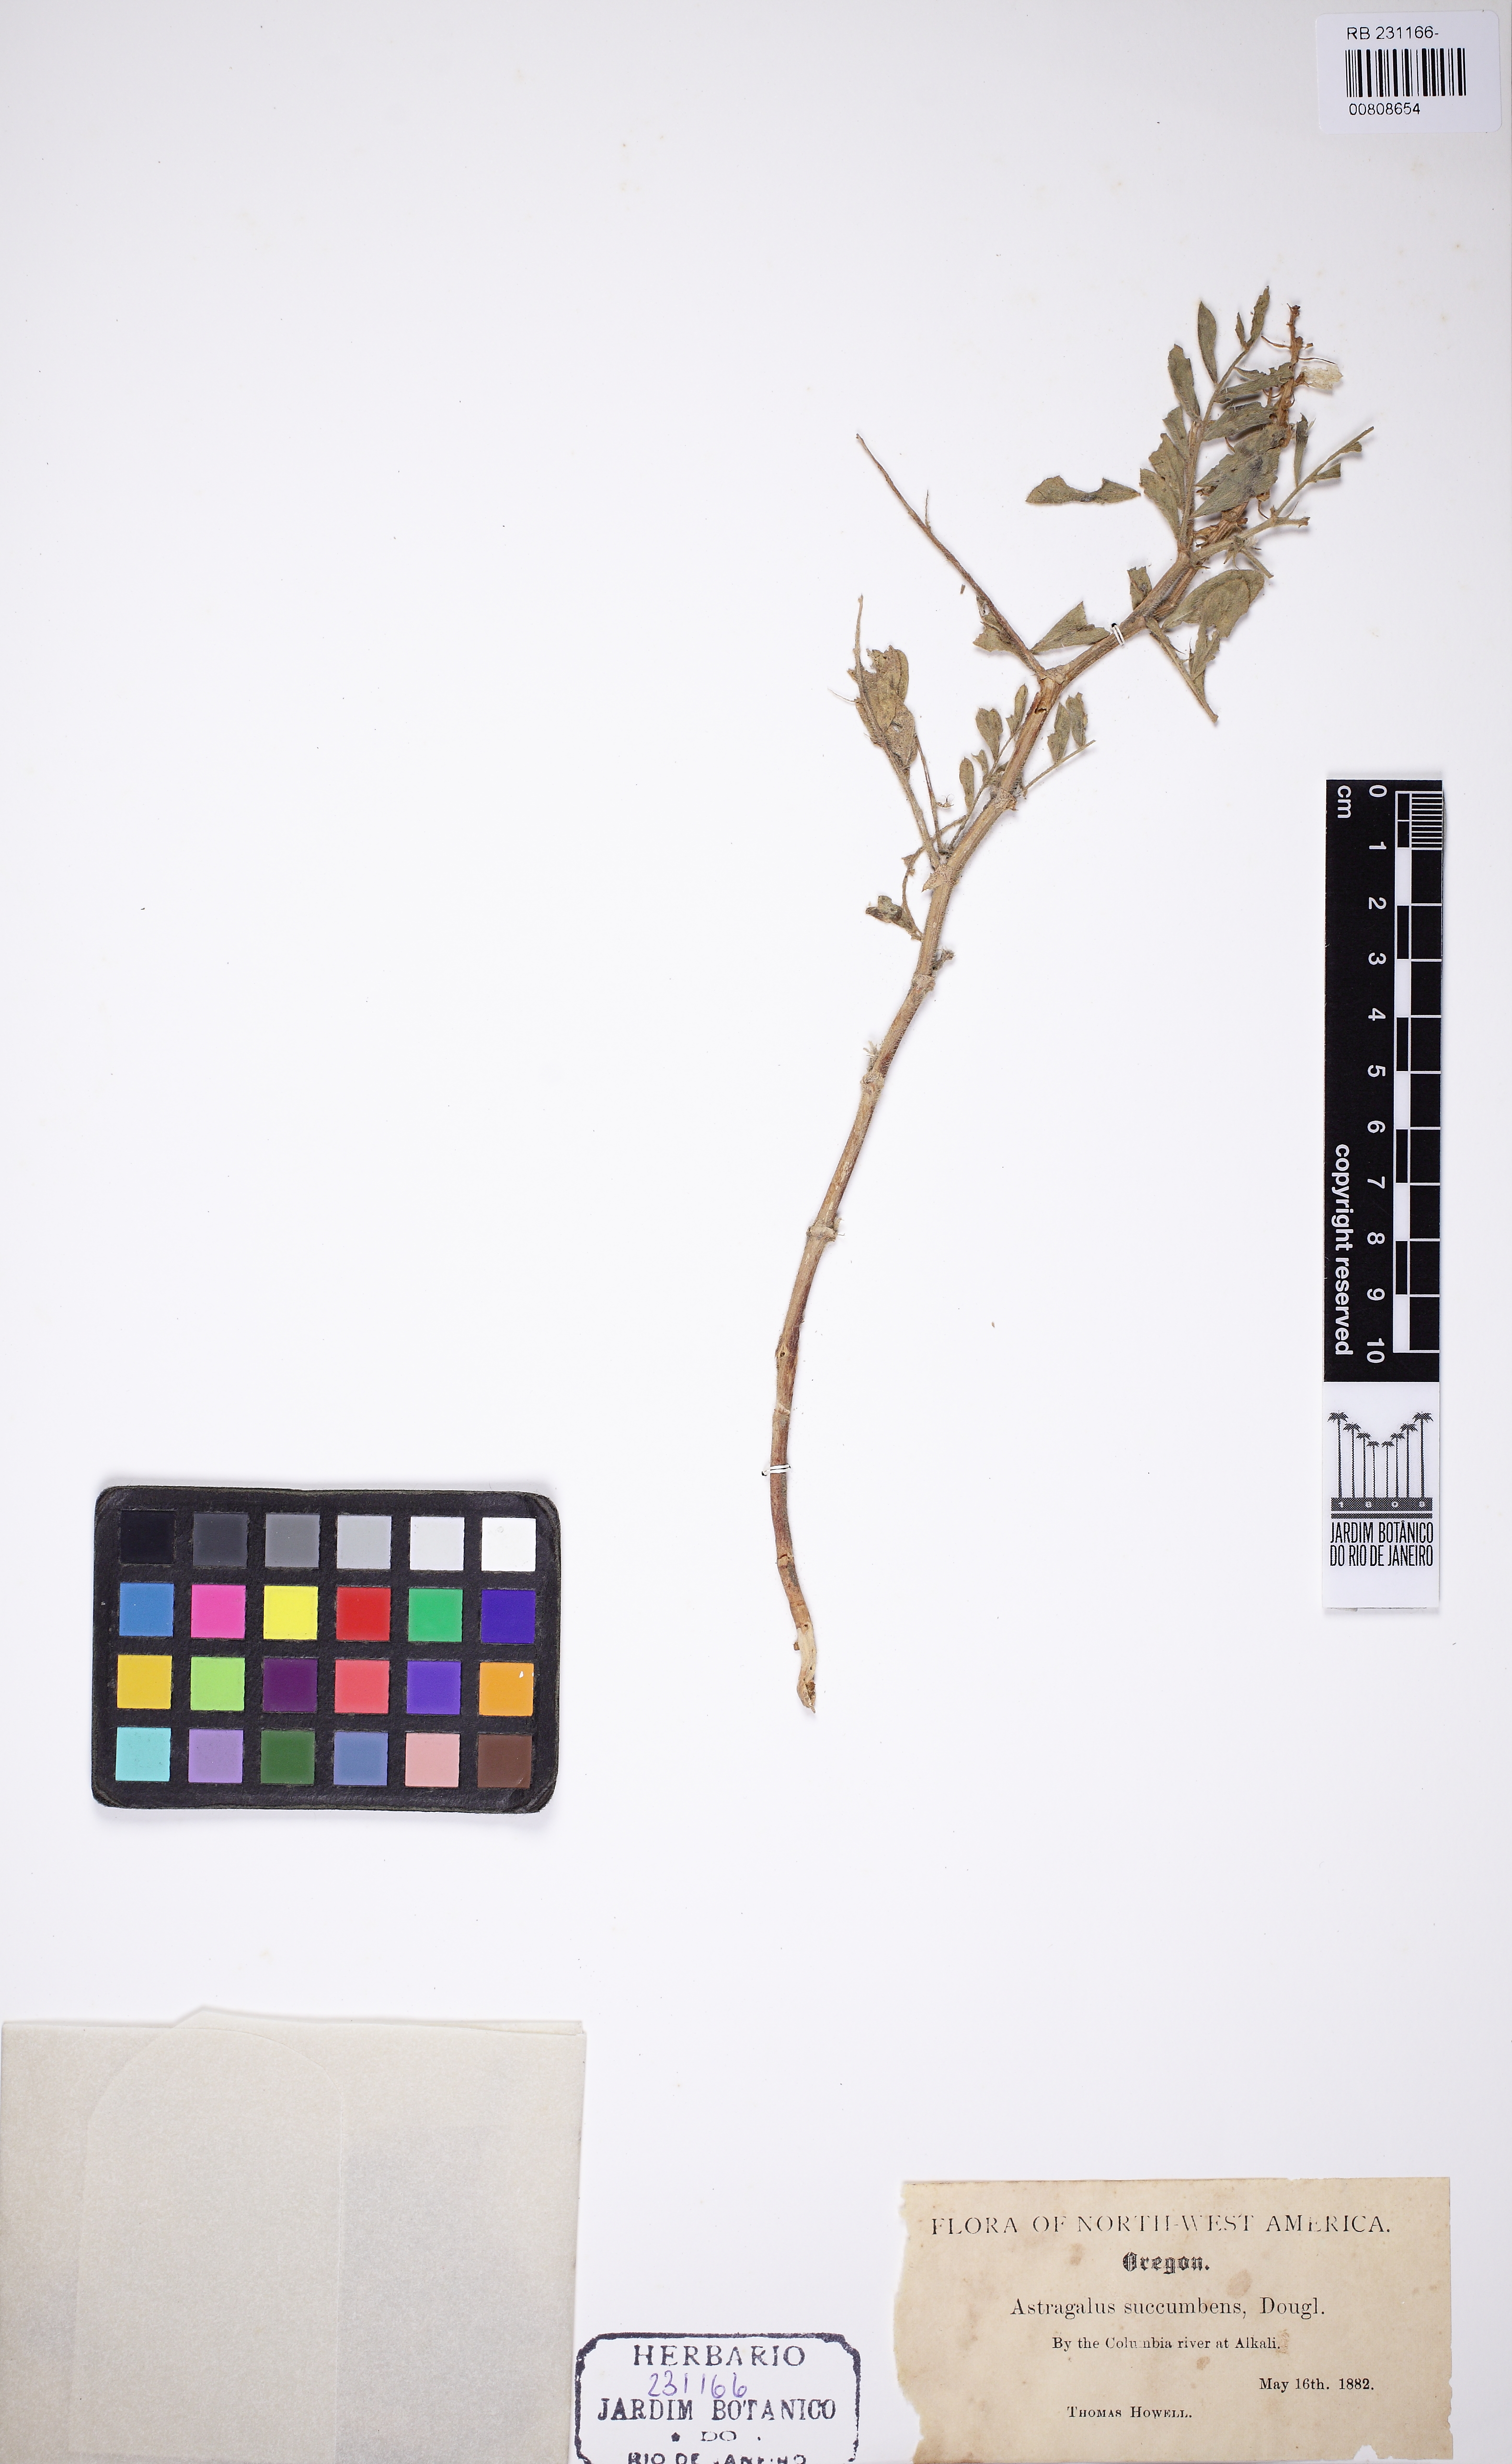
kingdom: Plantae
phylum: Tracheophyta
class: Magnoliopsida
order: Fabales
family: Fabaceae
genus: Astragalus
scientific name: Astragalus succumbens
